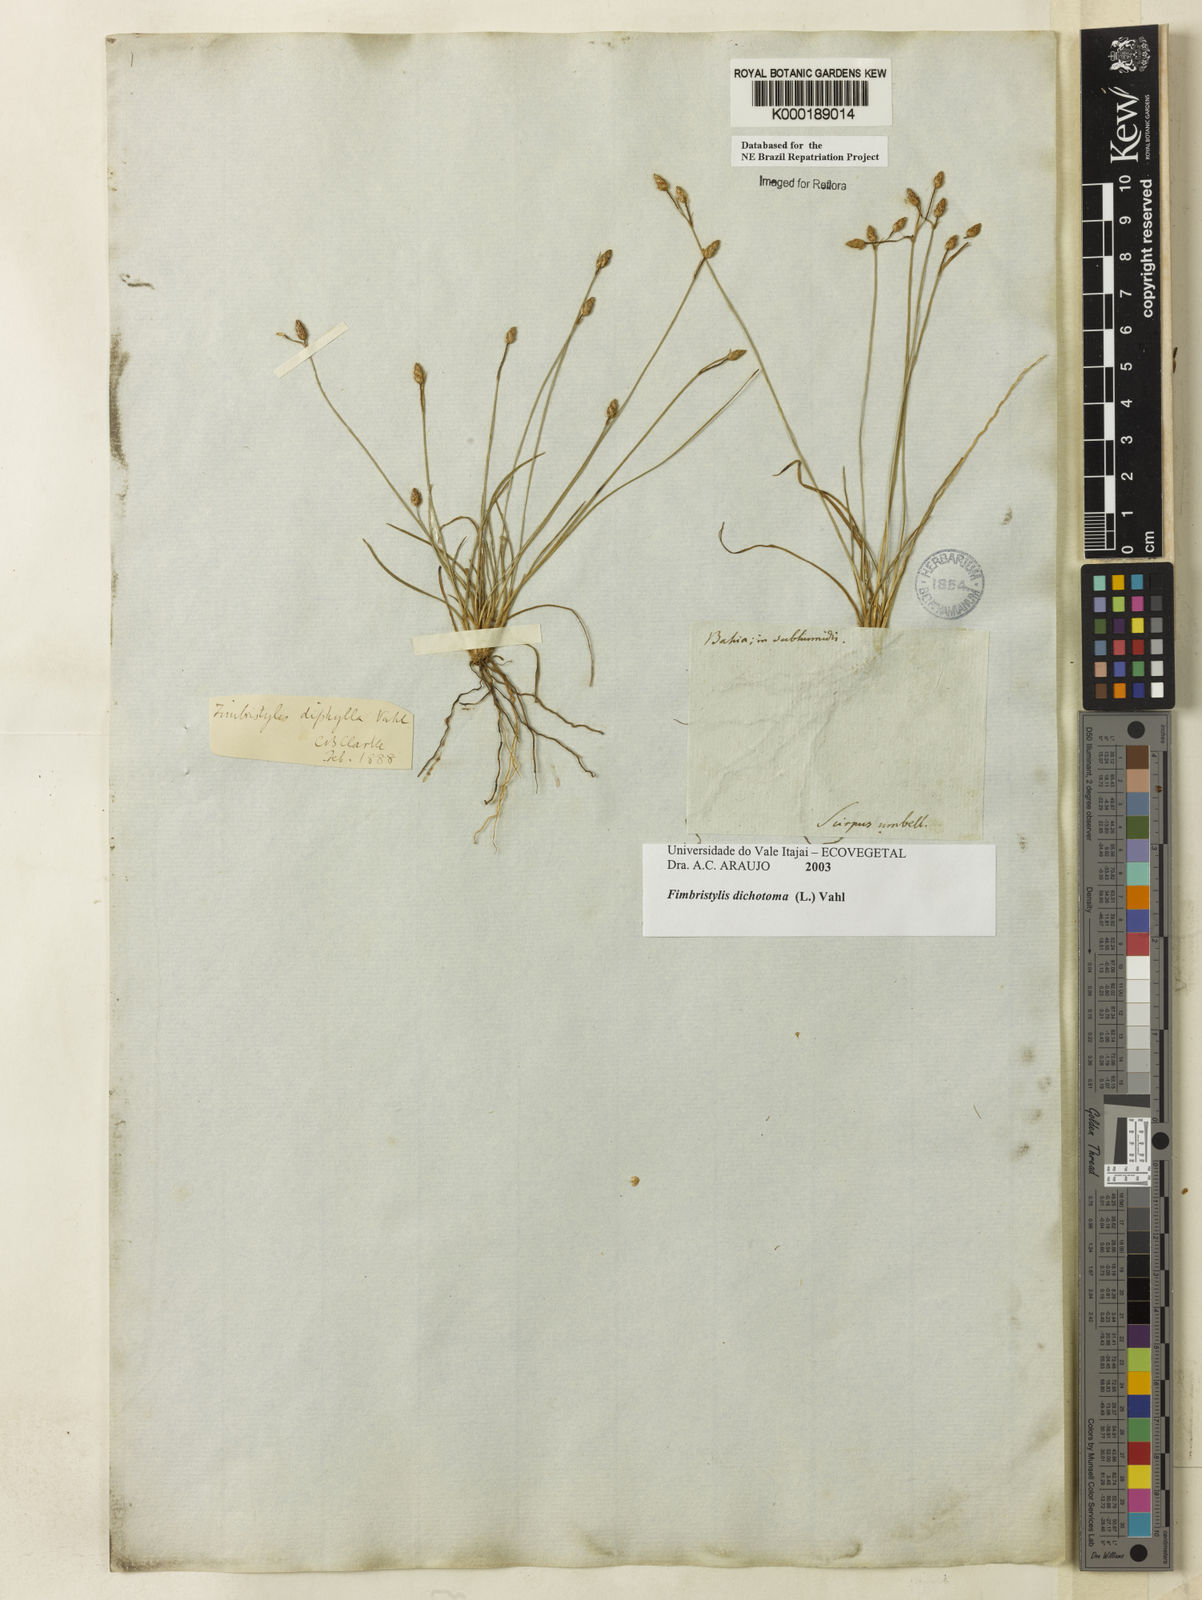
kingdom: Plantae
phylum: Tracheophyta
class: Liliopsida
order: Poales
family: Cyperaceae
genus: Fimbristylis
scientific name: Fimbristylis dichotoma
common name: Forked fimbry
